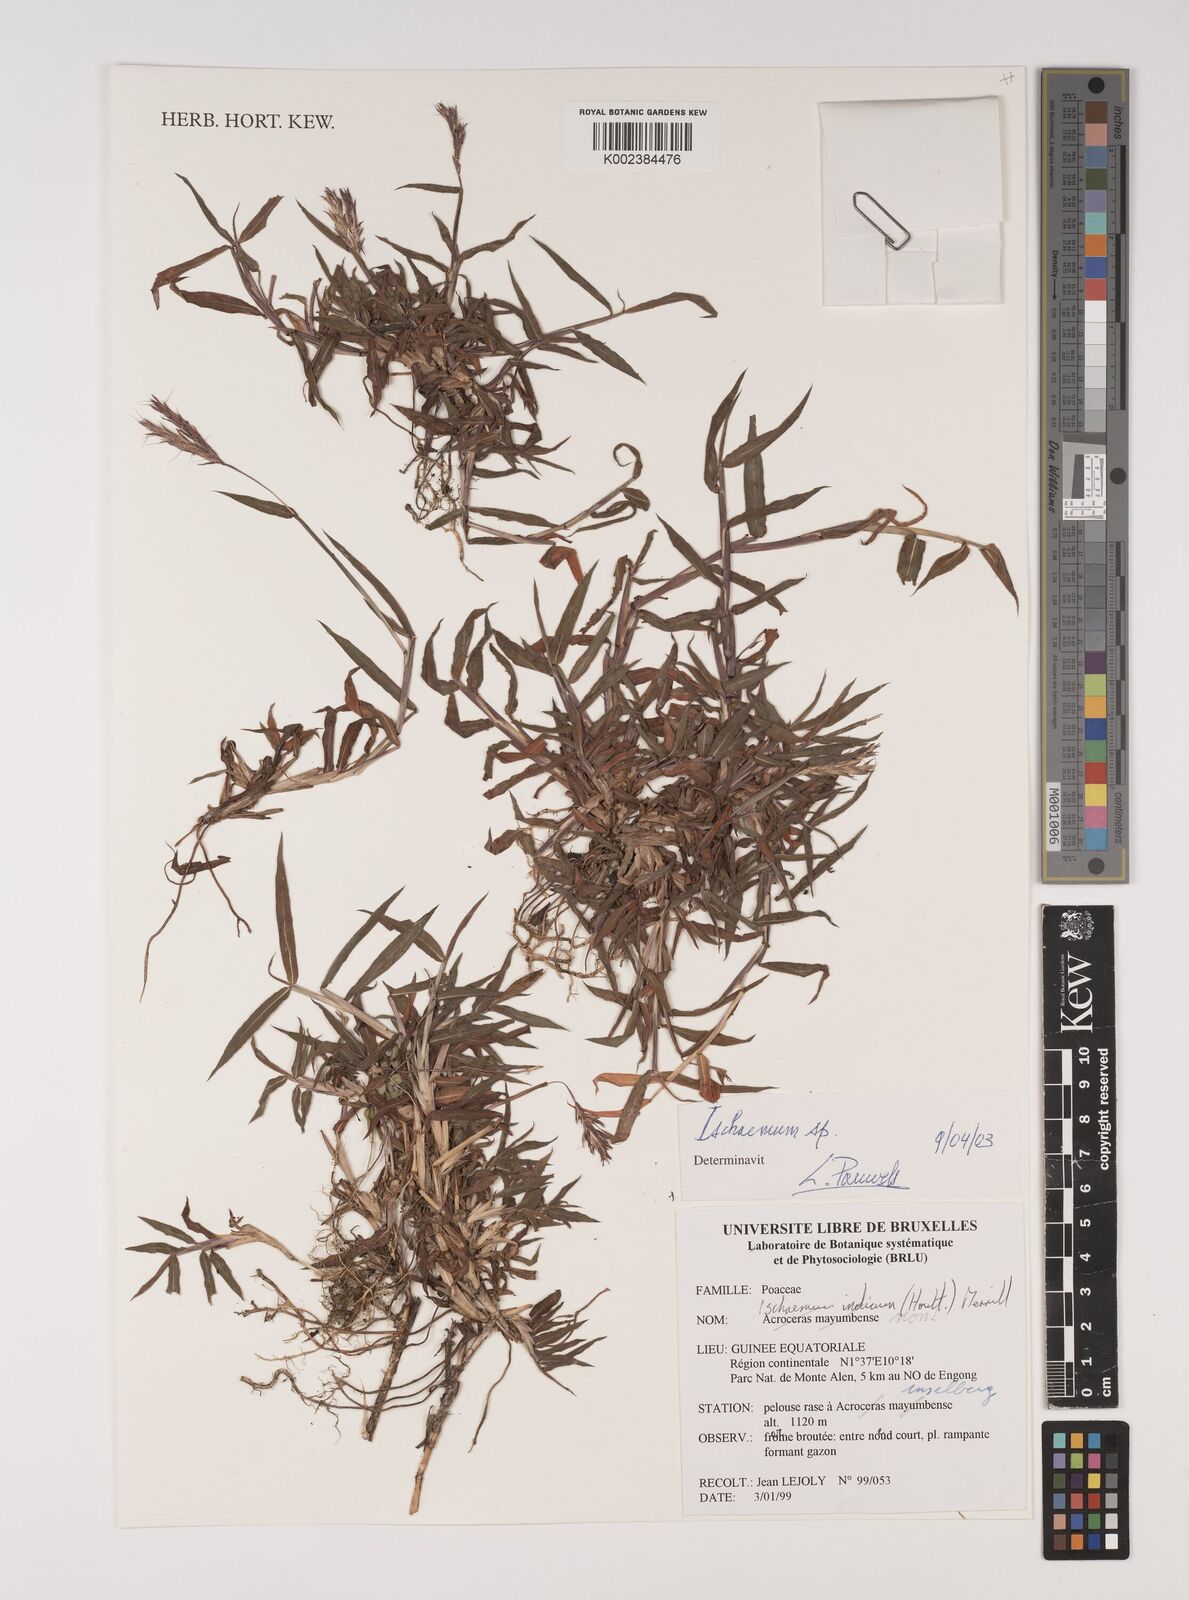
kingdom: Plantae
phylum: Tracheophyta
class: Liliopsida
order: Poales
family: Poaceae
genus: Polytrias
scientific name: Polytrias indica
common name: Indian murainagrass
